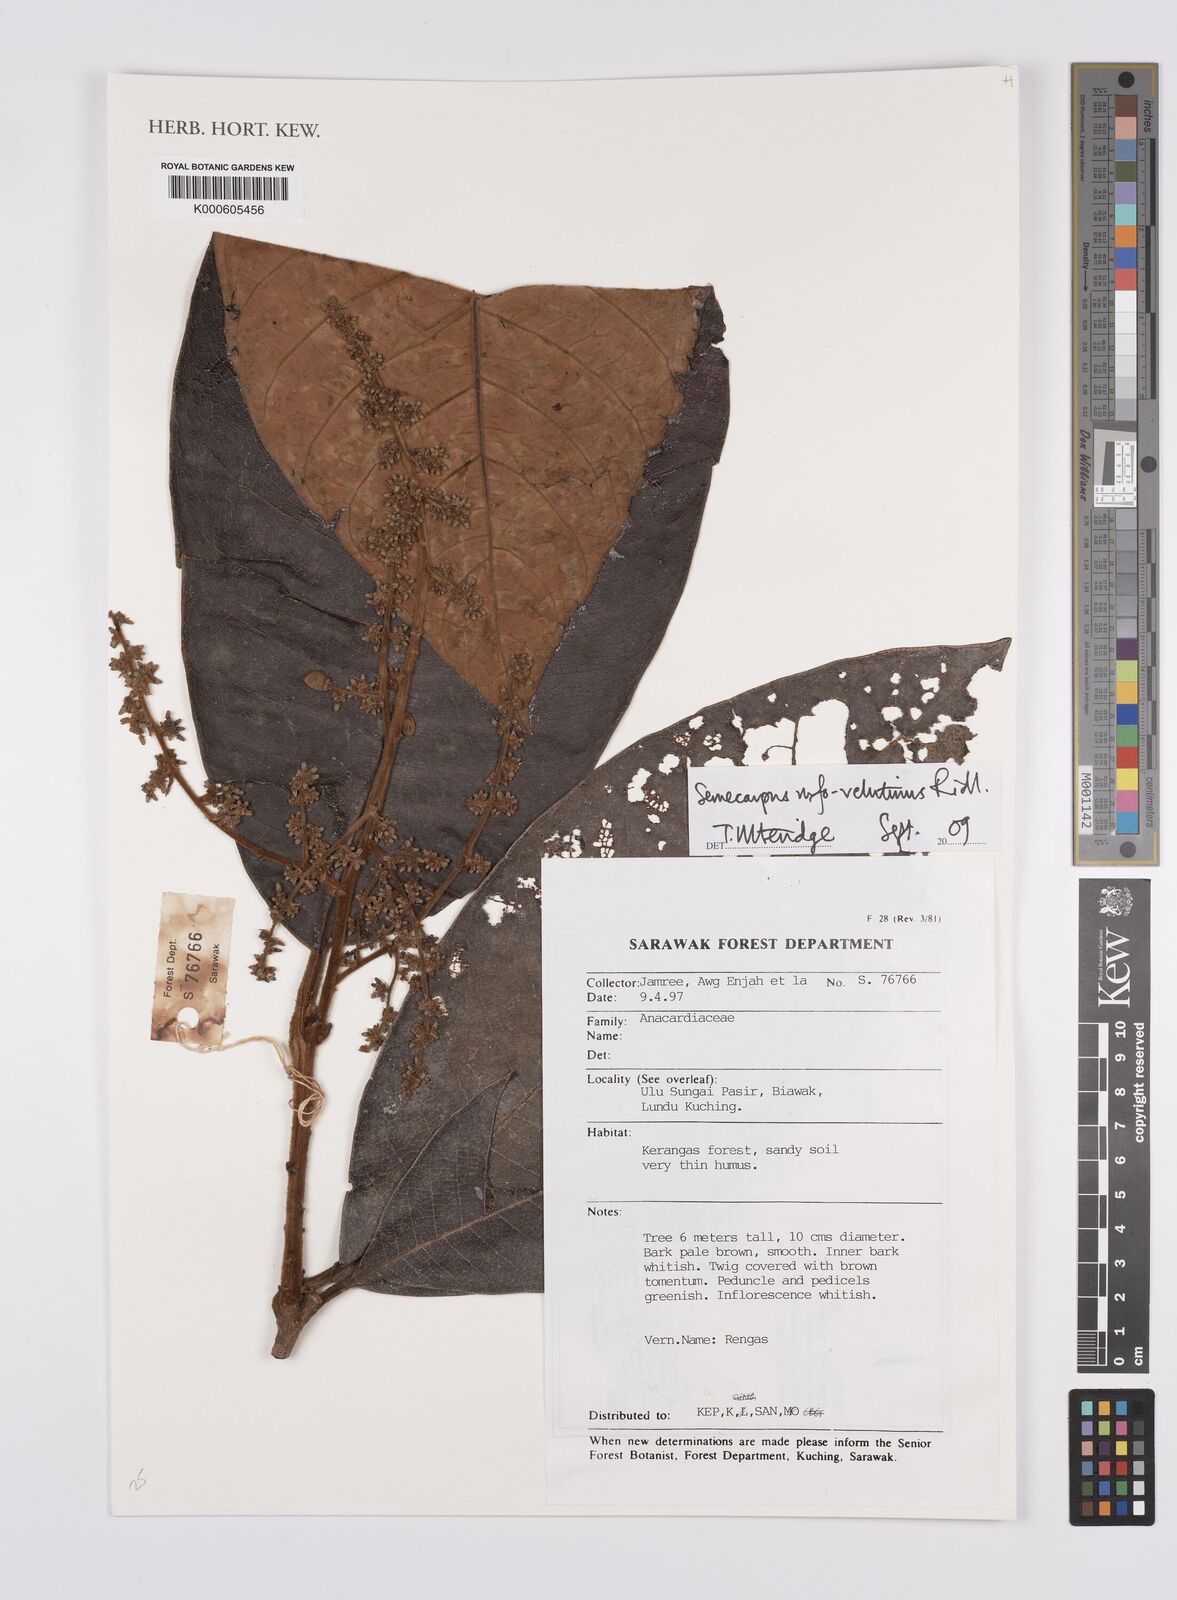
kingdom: Plantae
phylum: Tracheophyta
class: Magnoliopsida
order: Sapindales
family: Anacardiaceae
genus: Semecarpus
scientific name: Semecarpus rufovelutinus
